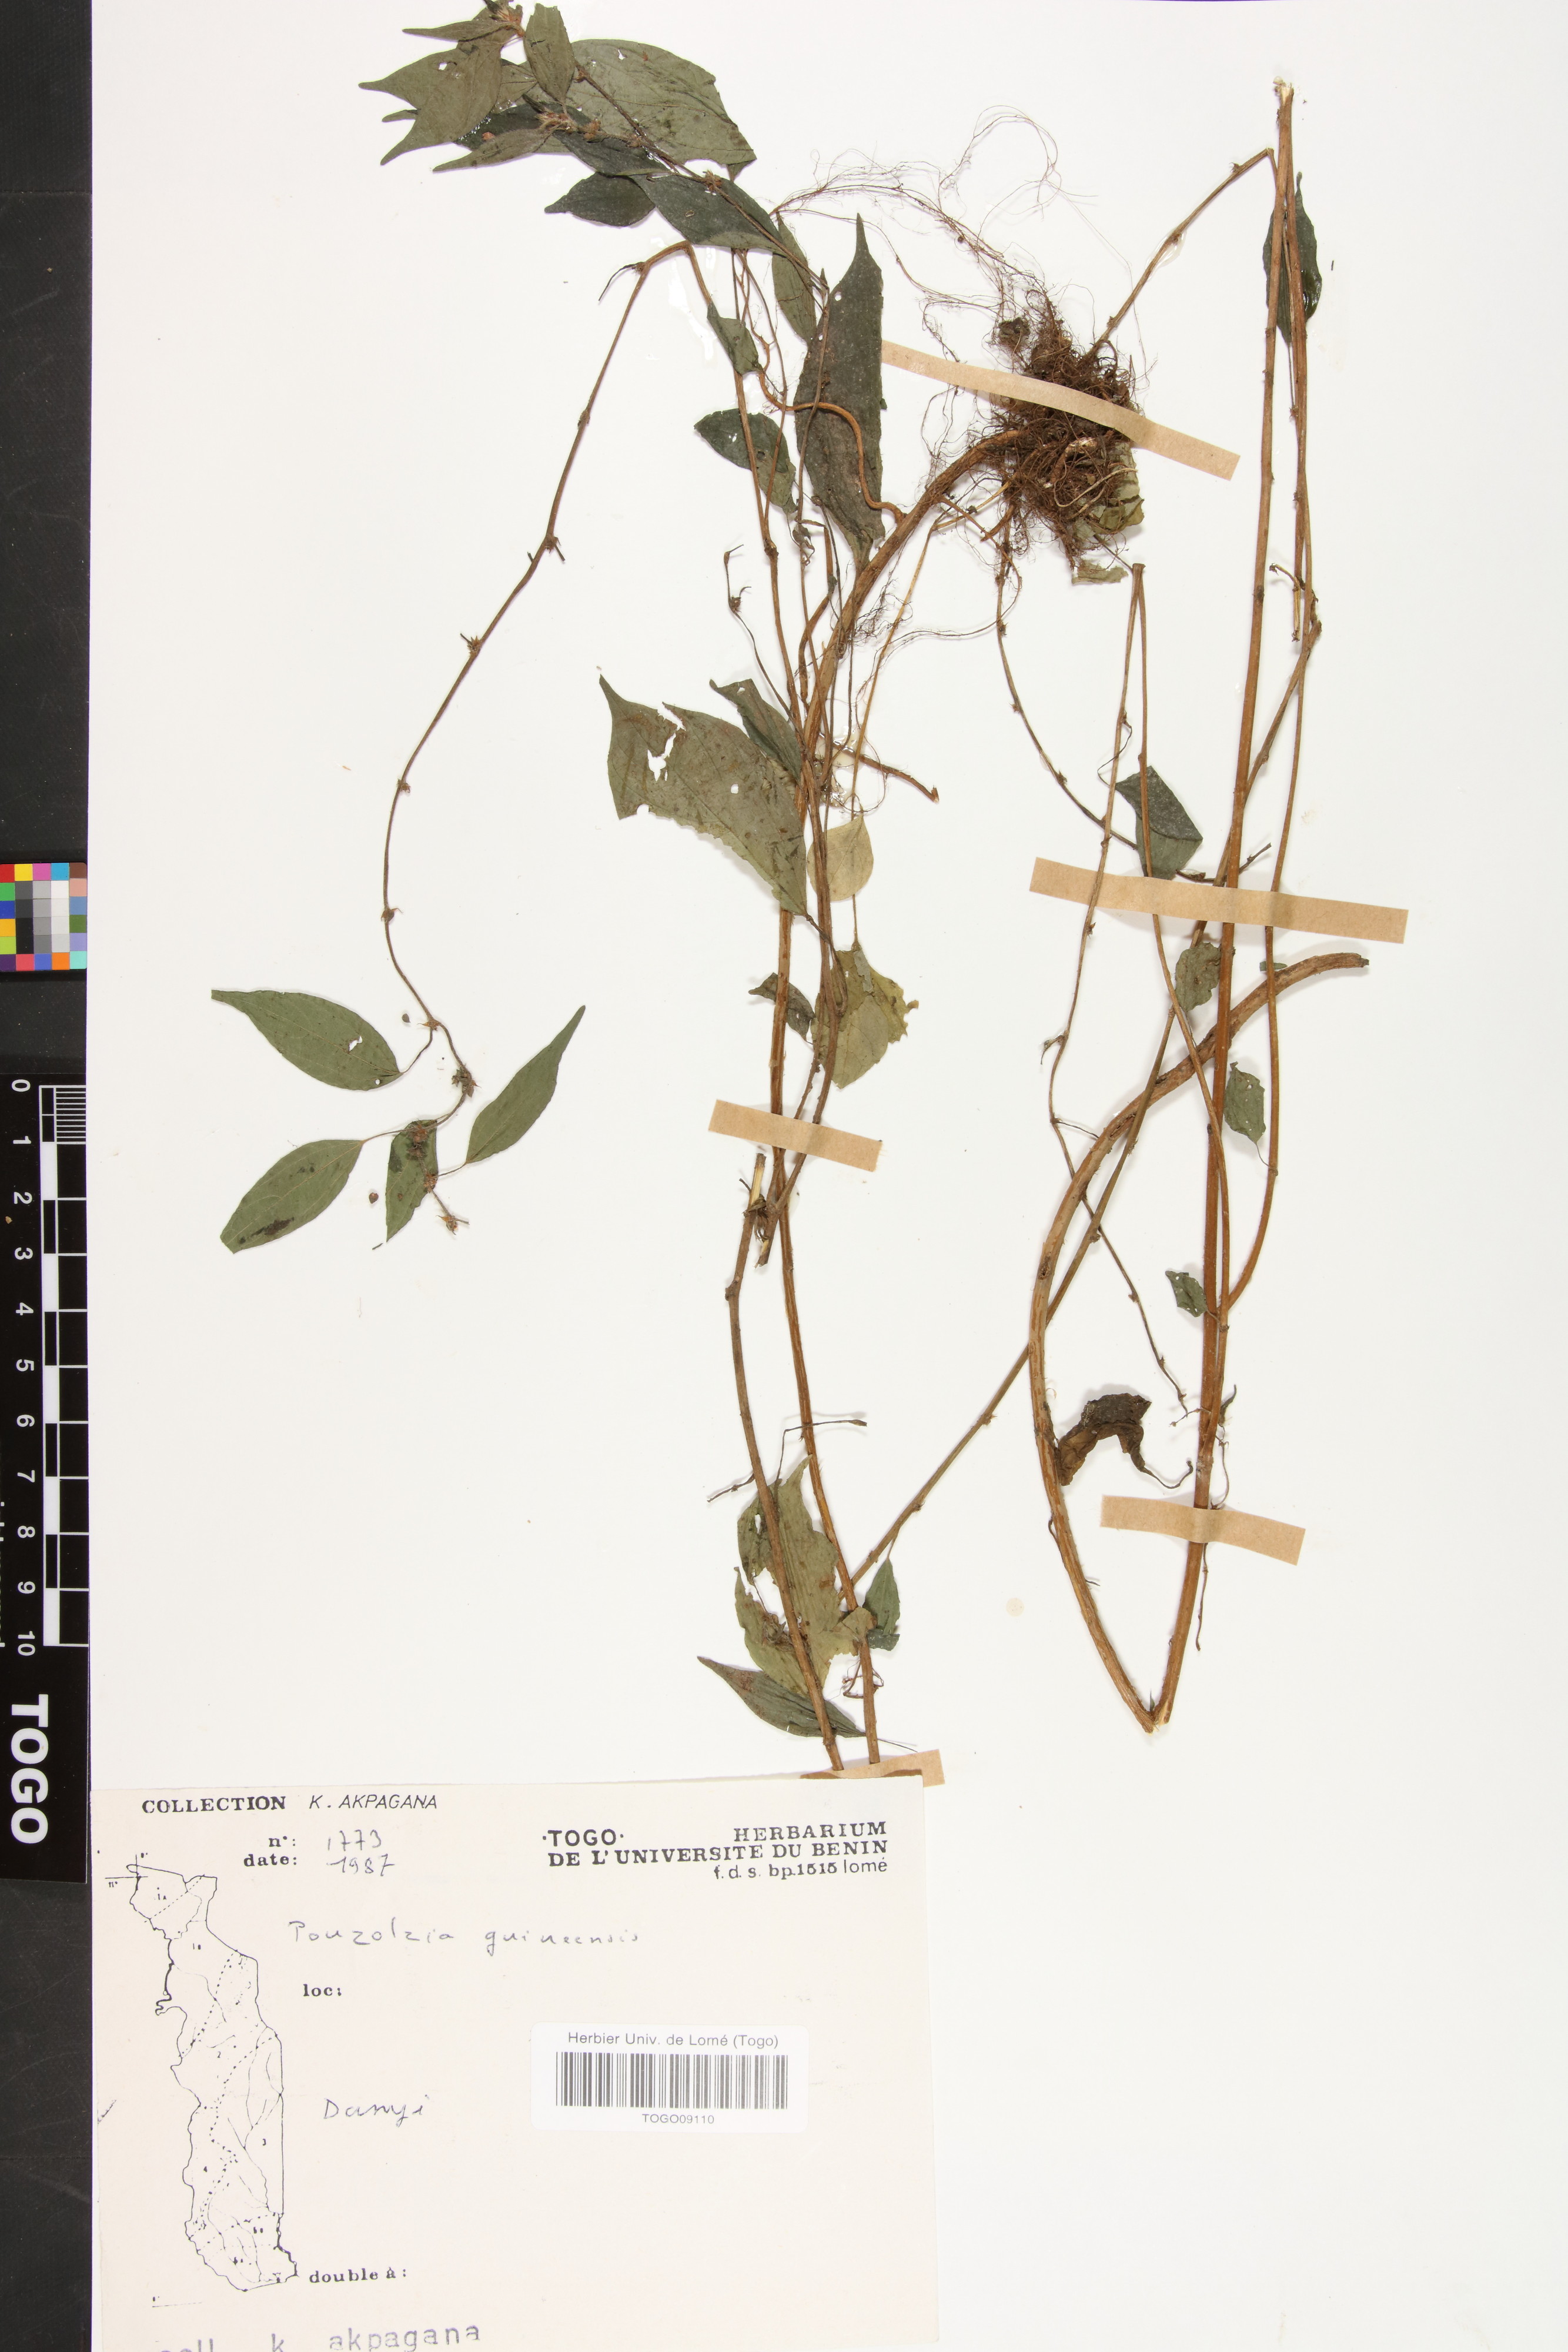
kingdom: Plantae
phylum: Tracheophyta
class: Magnoliopsida
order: Rosales
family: Urticaceae
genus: Pouzolzia
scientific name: Pouzolzia guineensis
